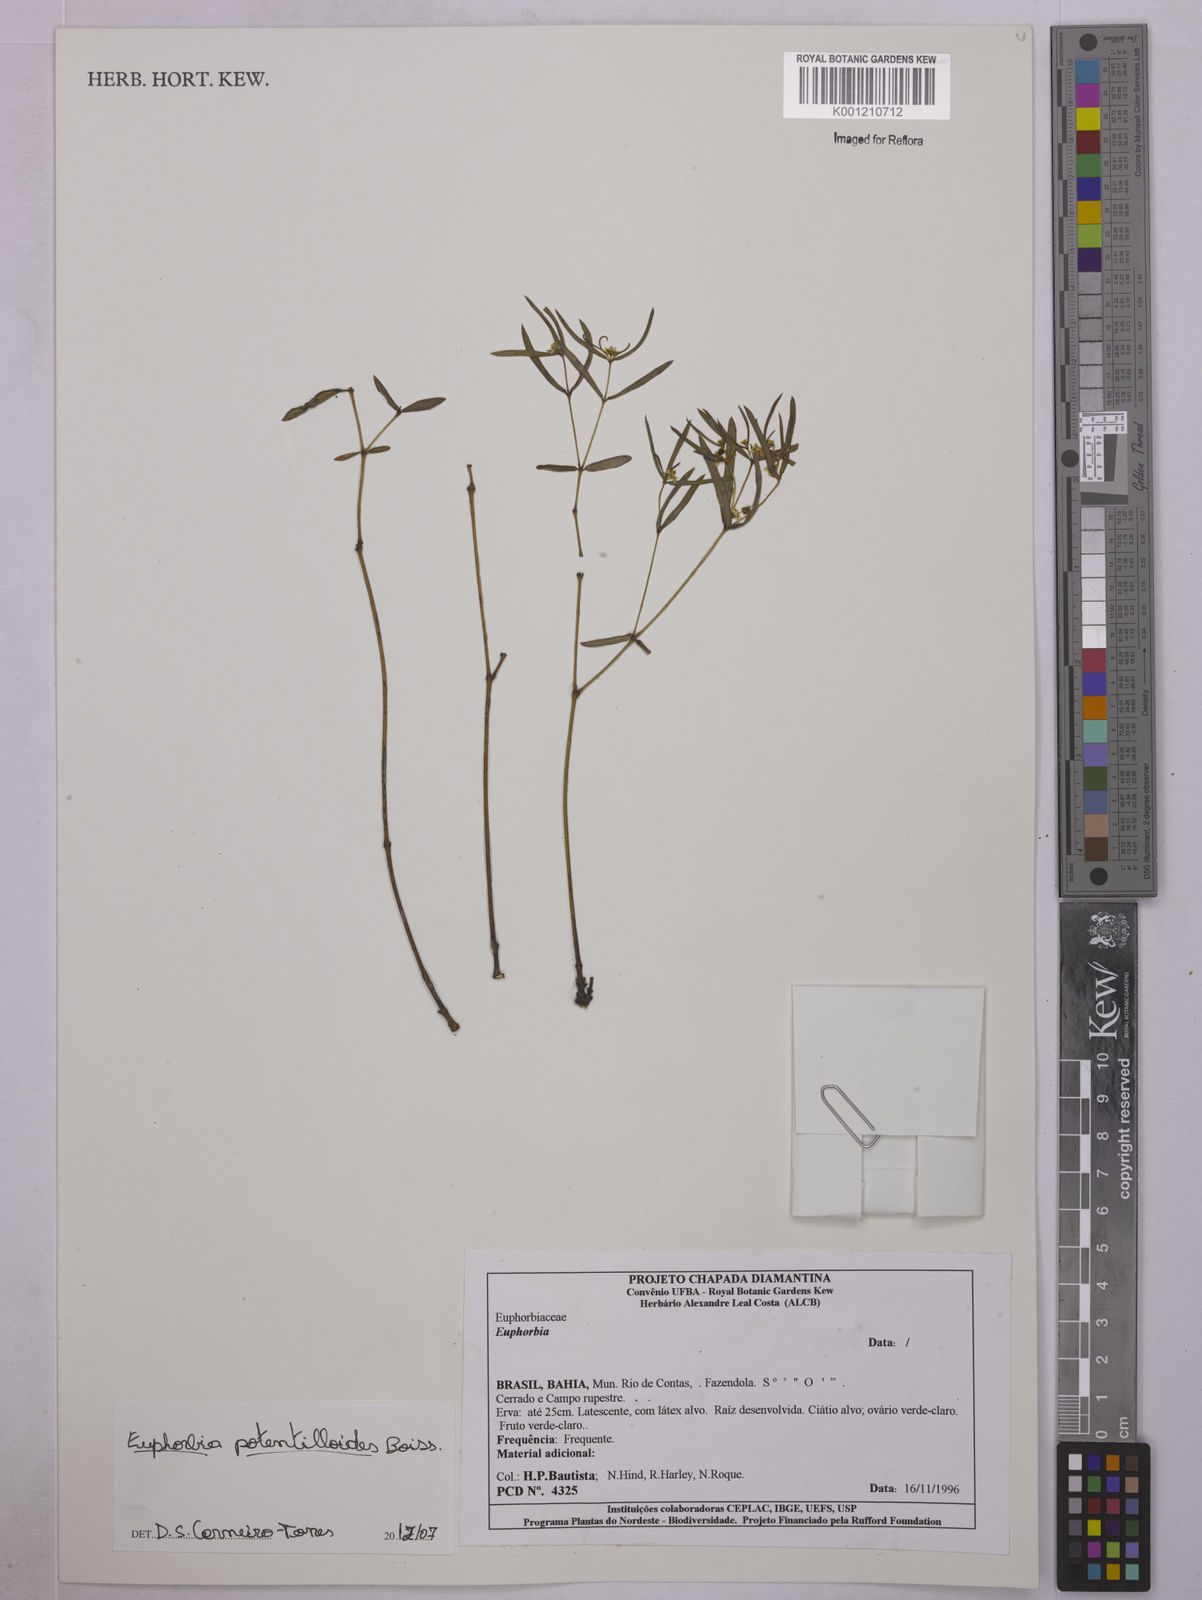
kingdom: Plantae
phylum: Tracheophyta
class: Magnoliopsida
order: Malpighiales
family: Euphorbiaceae
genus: Euphorbia
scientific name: Euphorbia potentilloides
